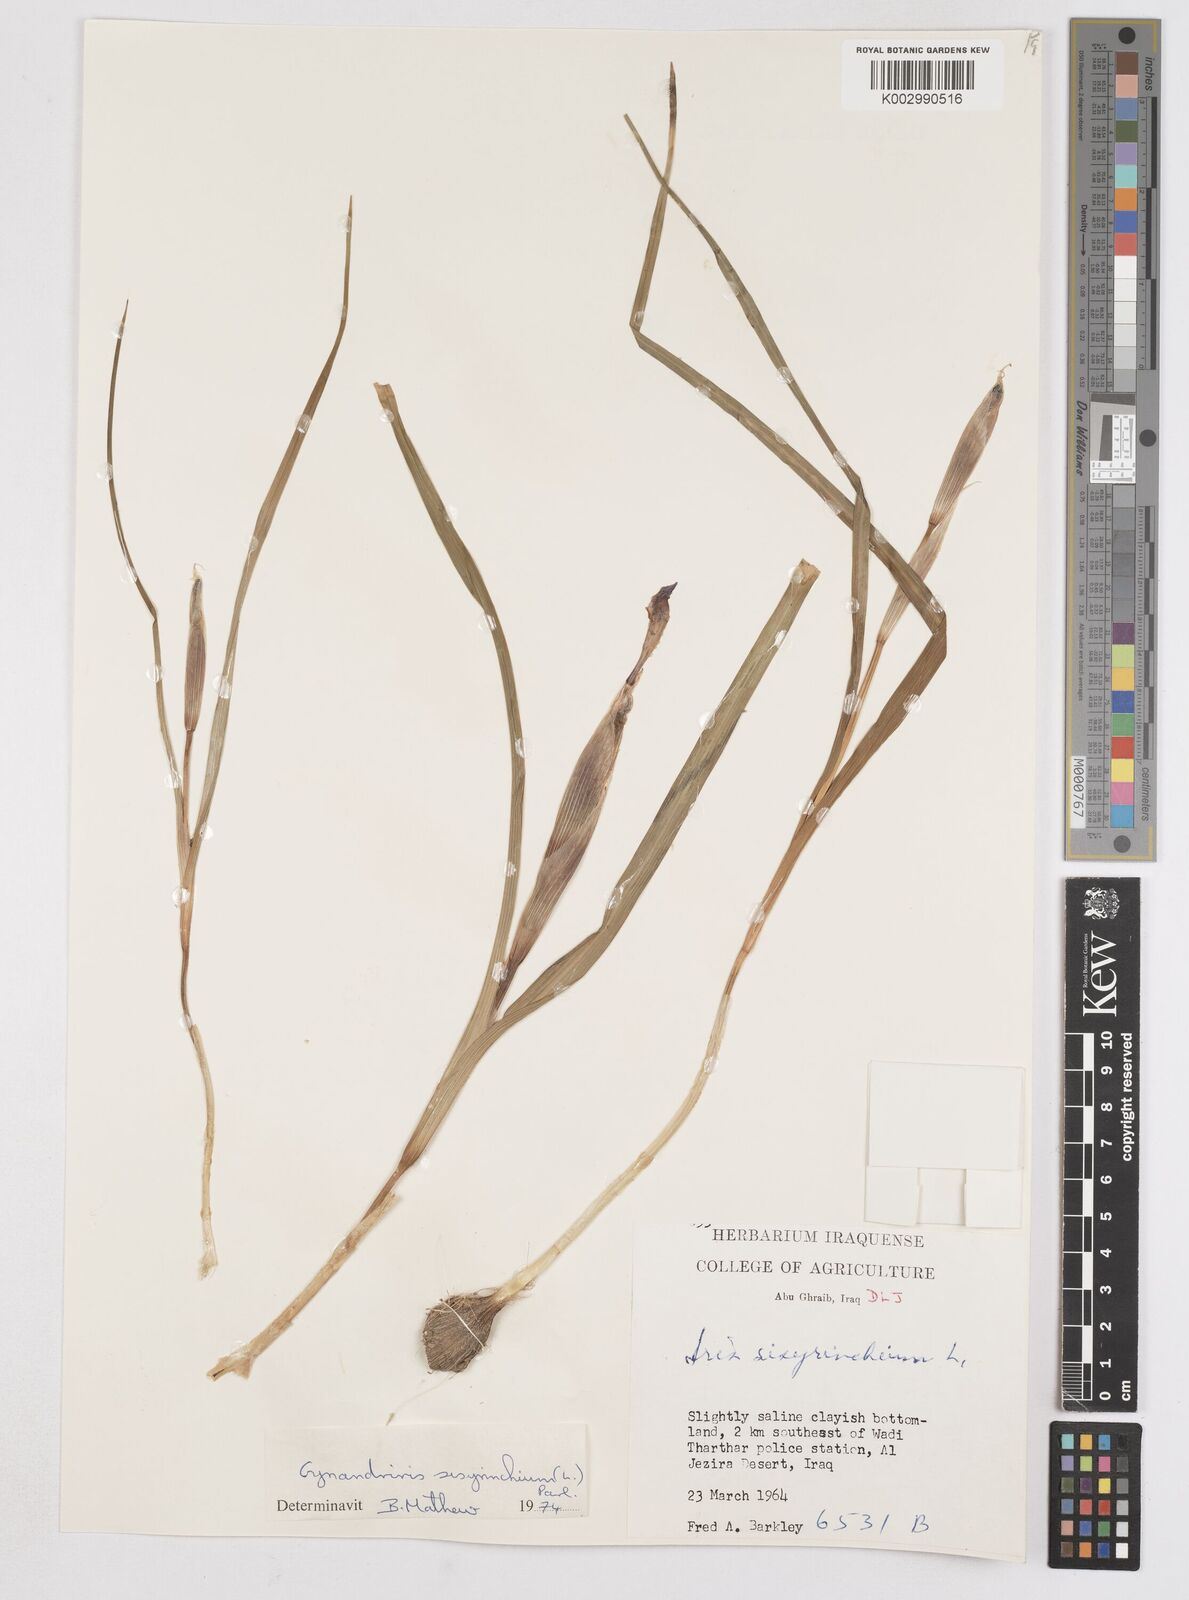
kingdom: Plantae
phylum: Tracheophyta
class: Liliopsida
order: Asparagales
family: Iridaceae
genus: Moraea
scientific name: Moraea sisyrinchium
